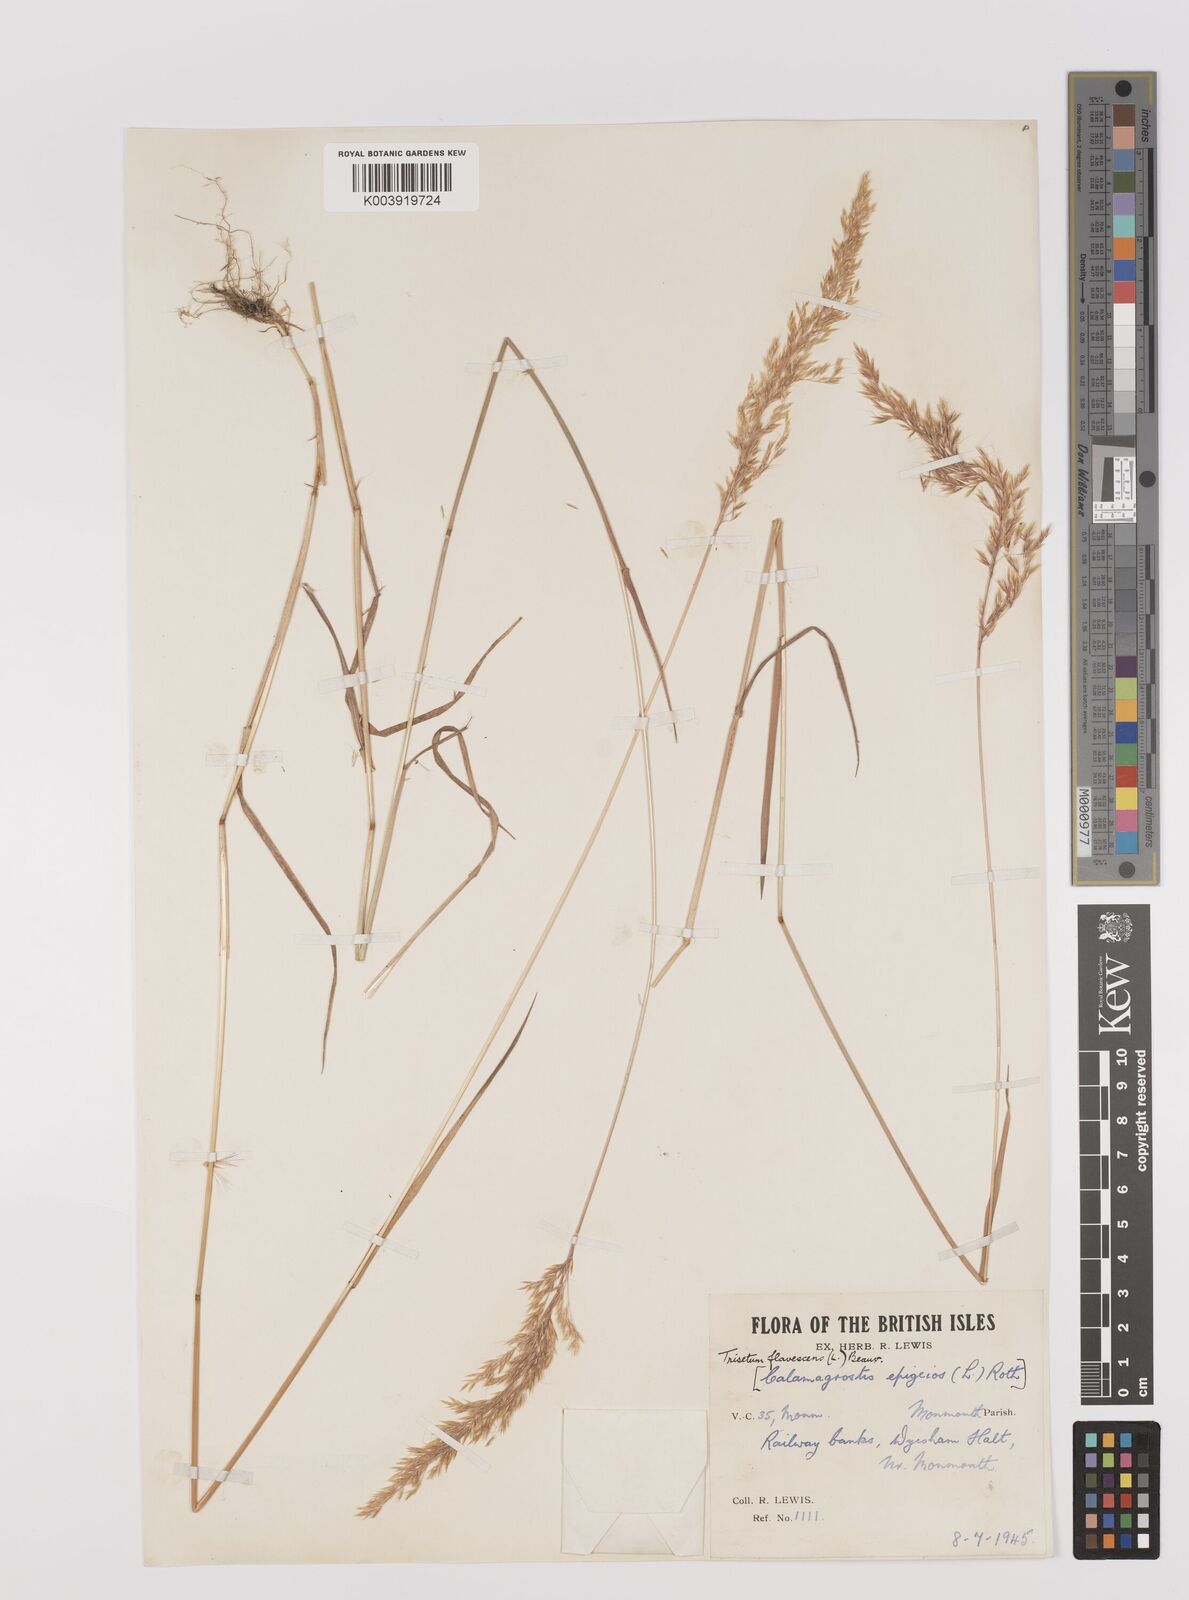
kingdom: Plantae
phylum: Tracheophyta
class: Liliopsida
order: Poales
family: Poaceae
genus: Trisetum
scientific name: Trisetum flavescens
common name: Yellow oat-grass
